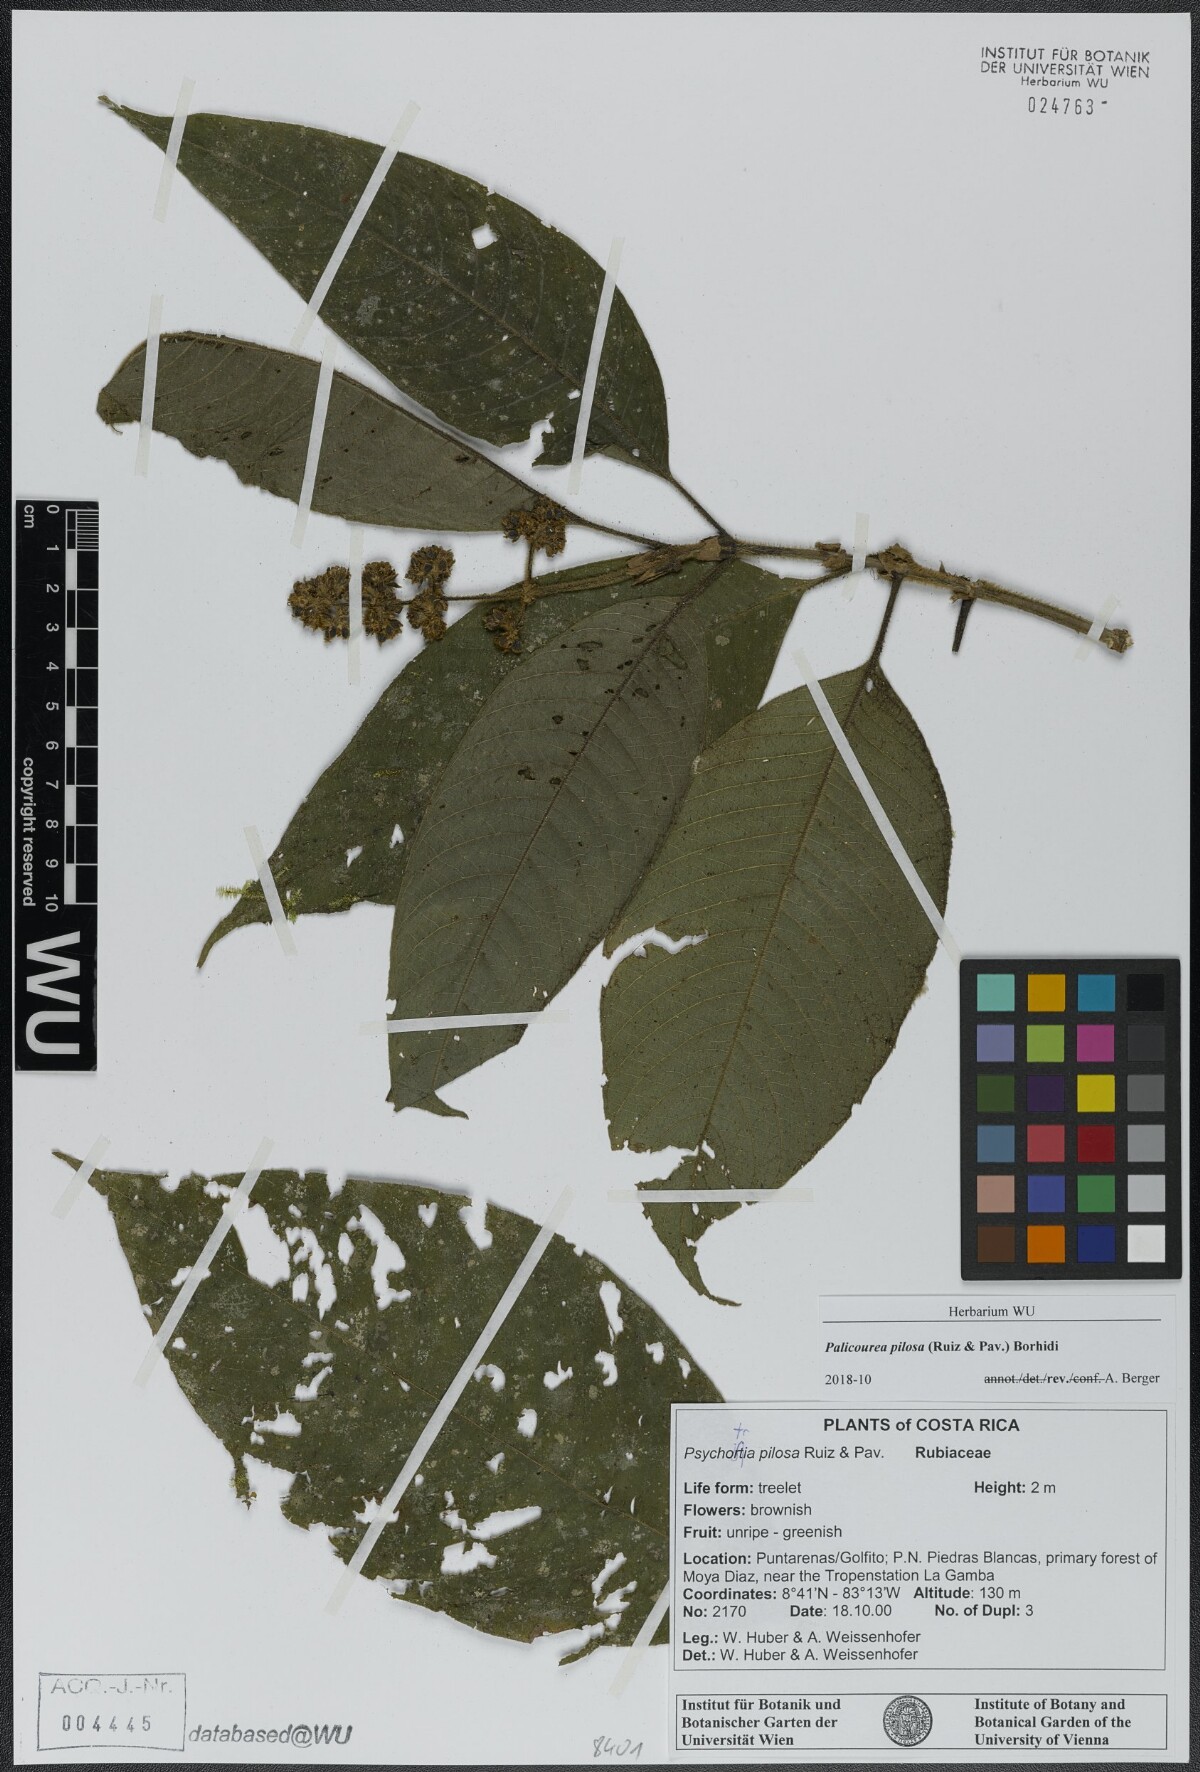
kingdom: Plantae
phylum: Tracheophyta
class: Magnoliopsida
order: Gentianales
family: Rubiaceae
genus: Palicourea
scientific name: Palicourea pilosa
